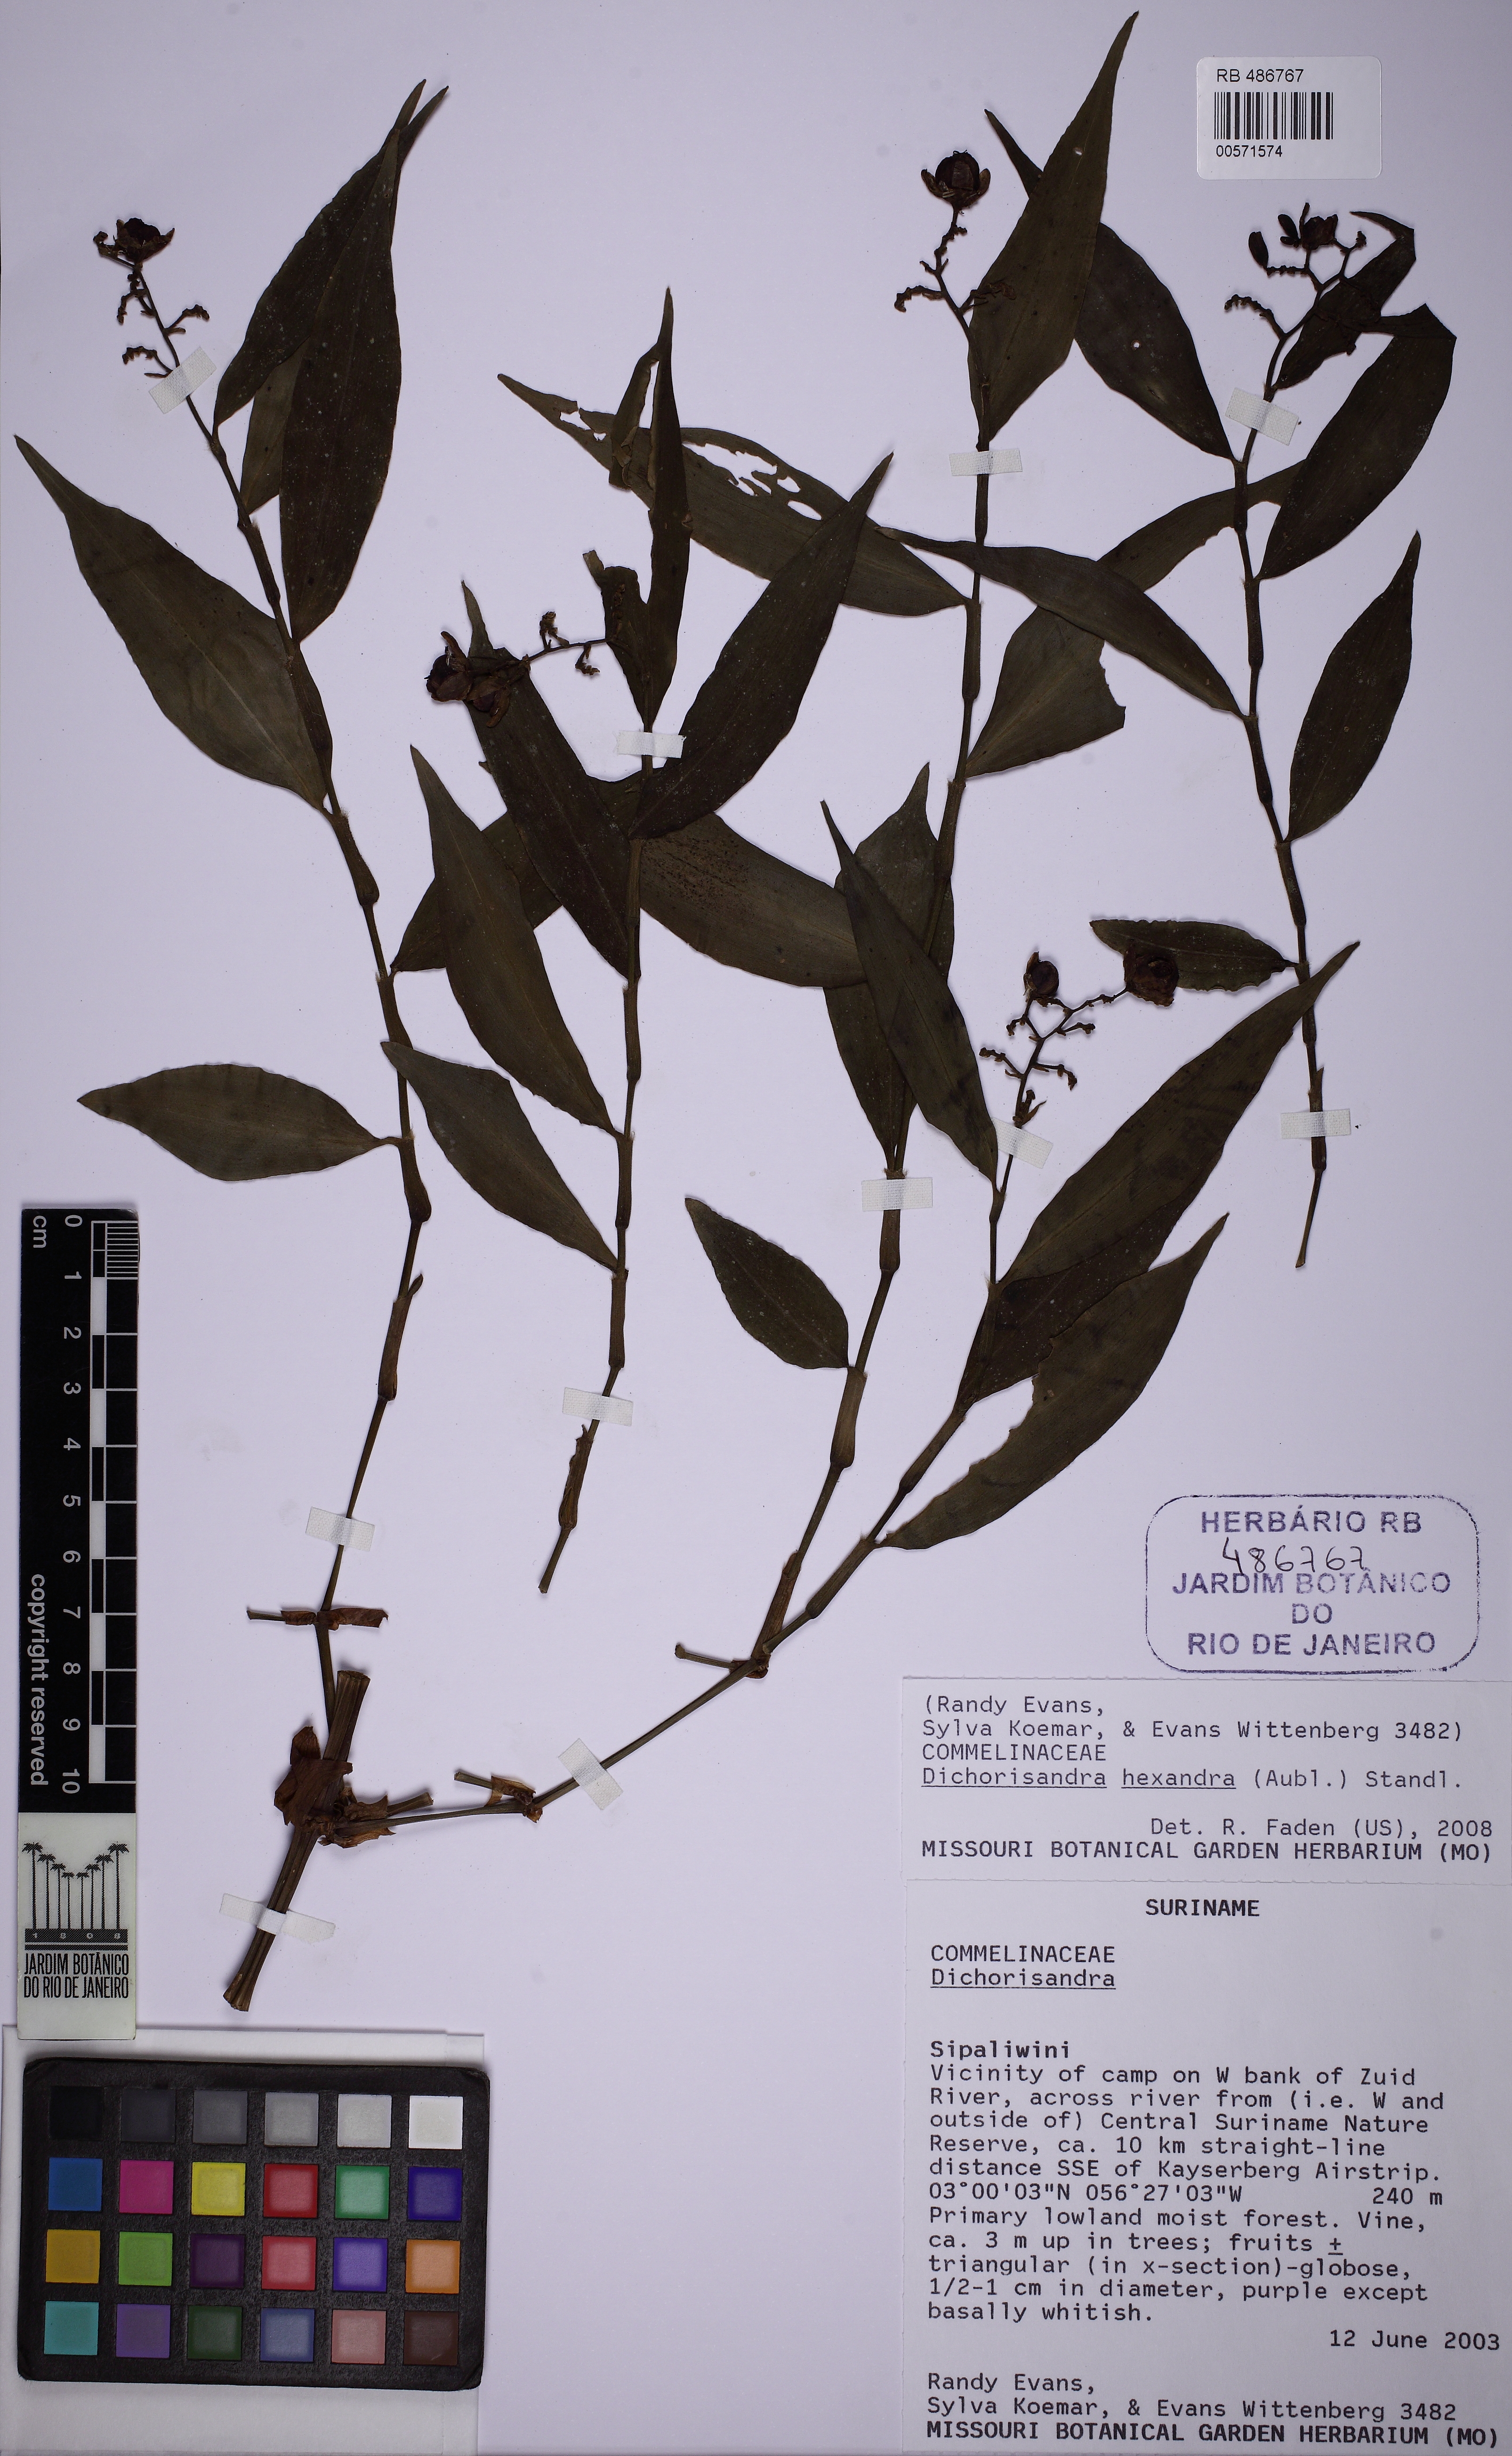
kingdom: Plantae
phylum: Tracheophyta
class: Liliopsida
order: Commelinales
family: Commelinaceae
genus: Dichorisandra
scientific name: Dichorisandra hexandra
